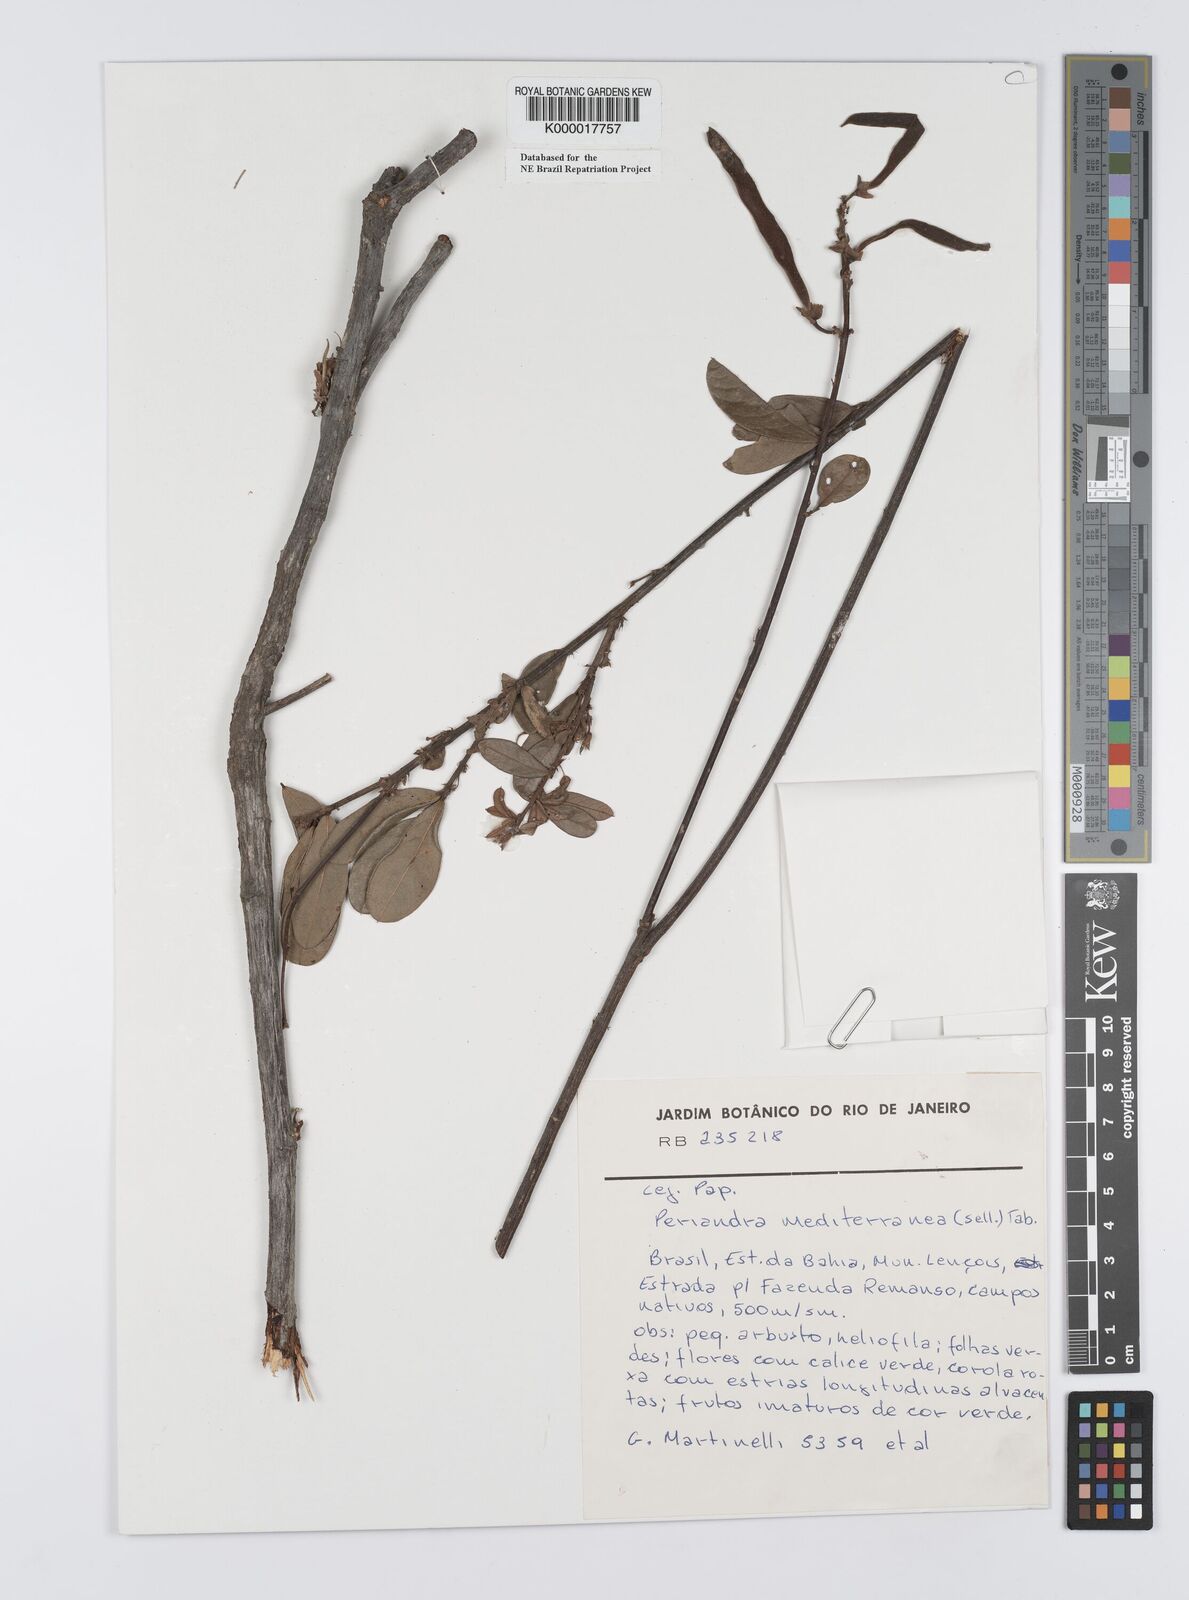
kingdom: Plantae
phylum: Tracheophyta
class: Magnoliopsida
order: Fabales
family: Fabaceae
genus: Periandra
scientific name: Periandra mediterranea
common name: Brazilian licorice
